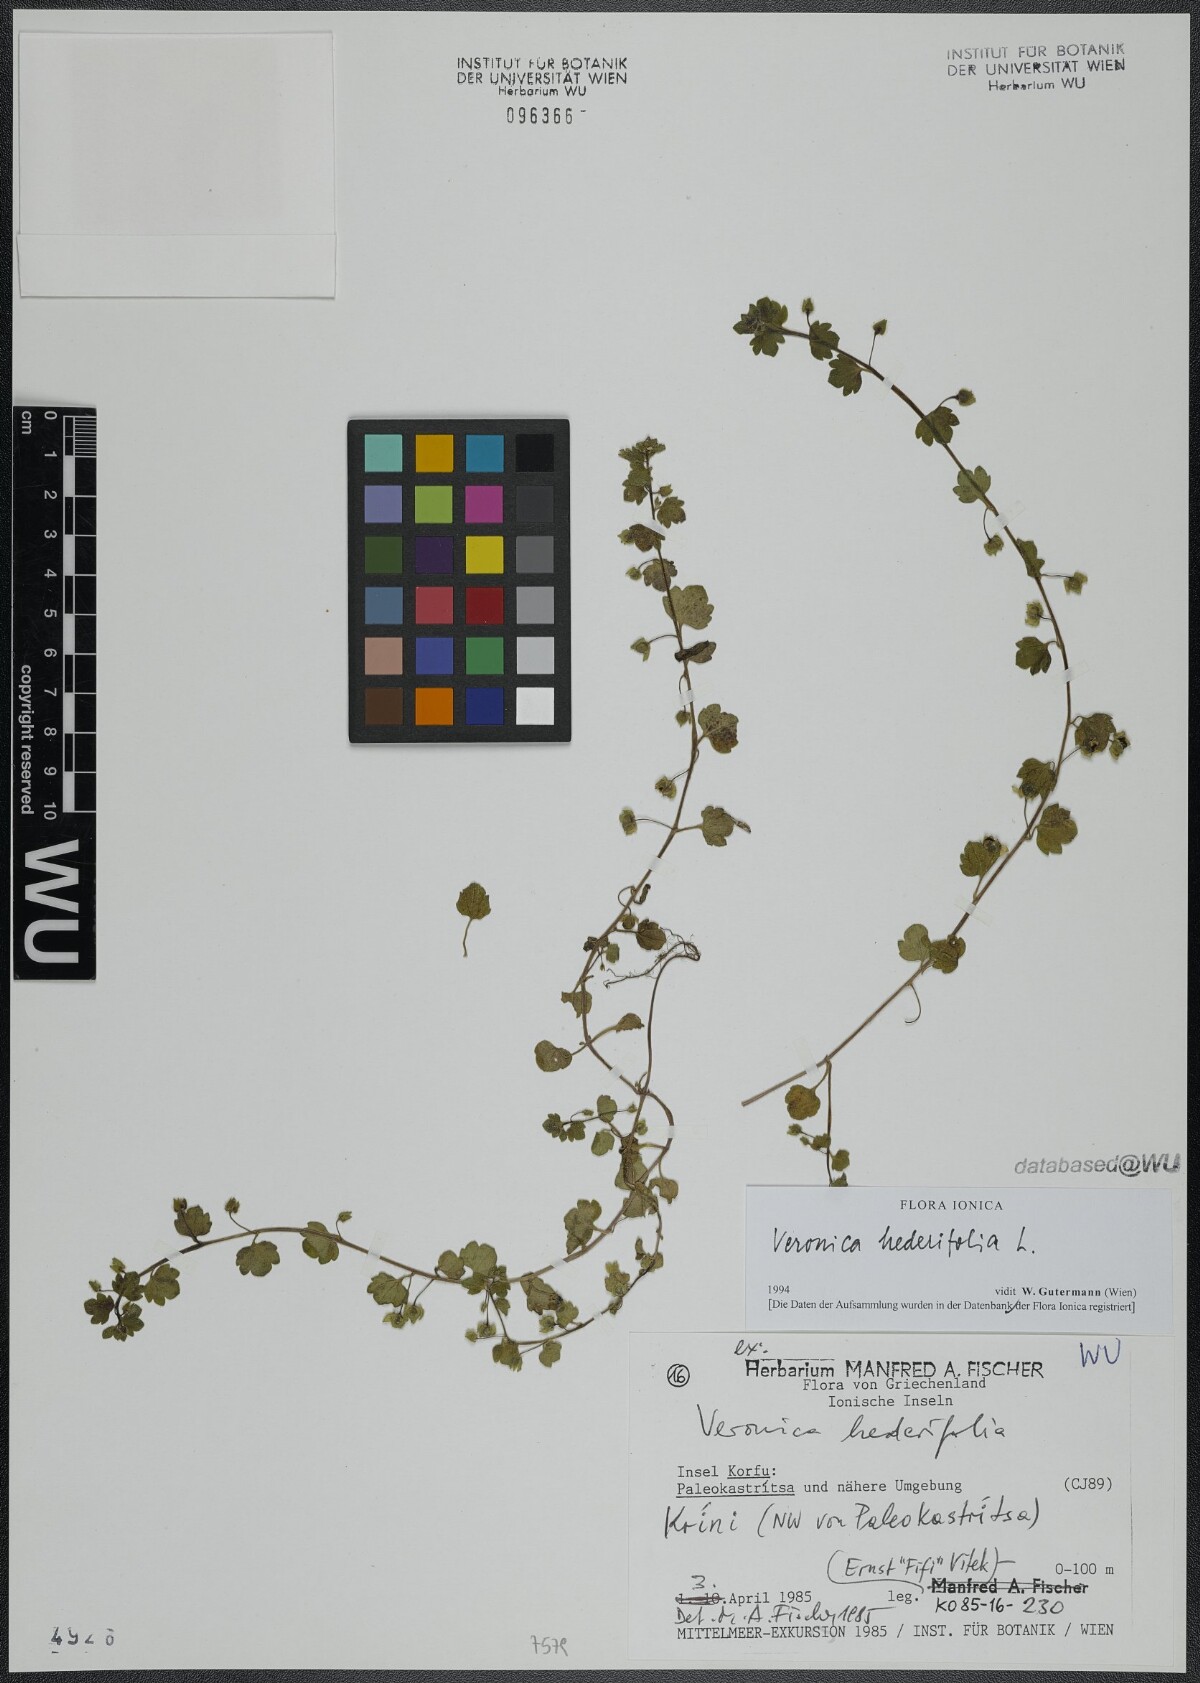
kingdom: Plantae
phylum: Tracheophyta
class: Magnoliopsida
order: Lamiales
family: Plantaginaceae
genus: Veronica
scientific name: Veronica hederifolia
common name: Ivy-leaved speedwell
